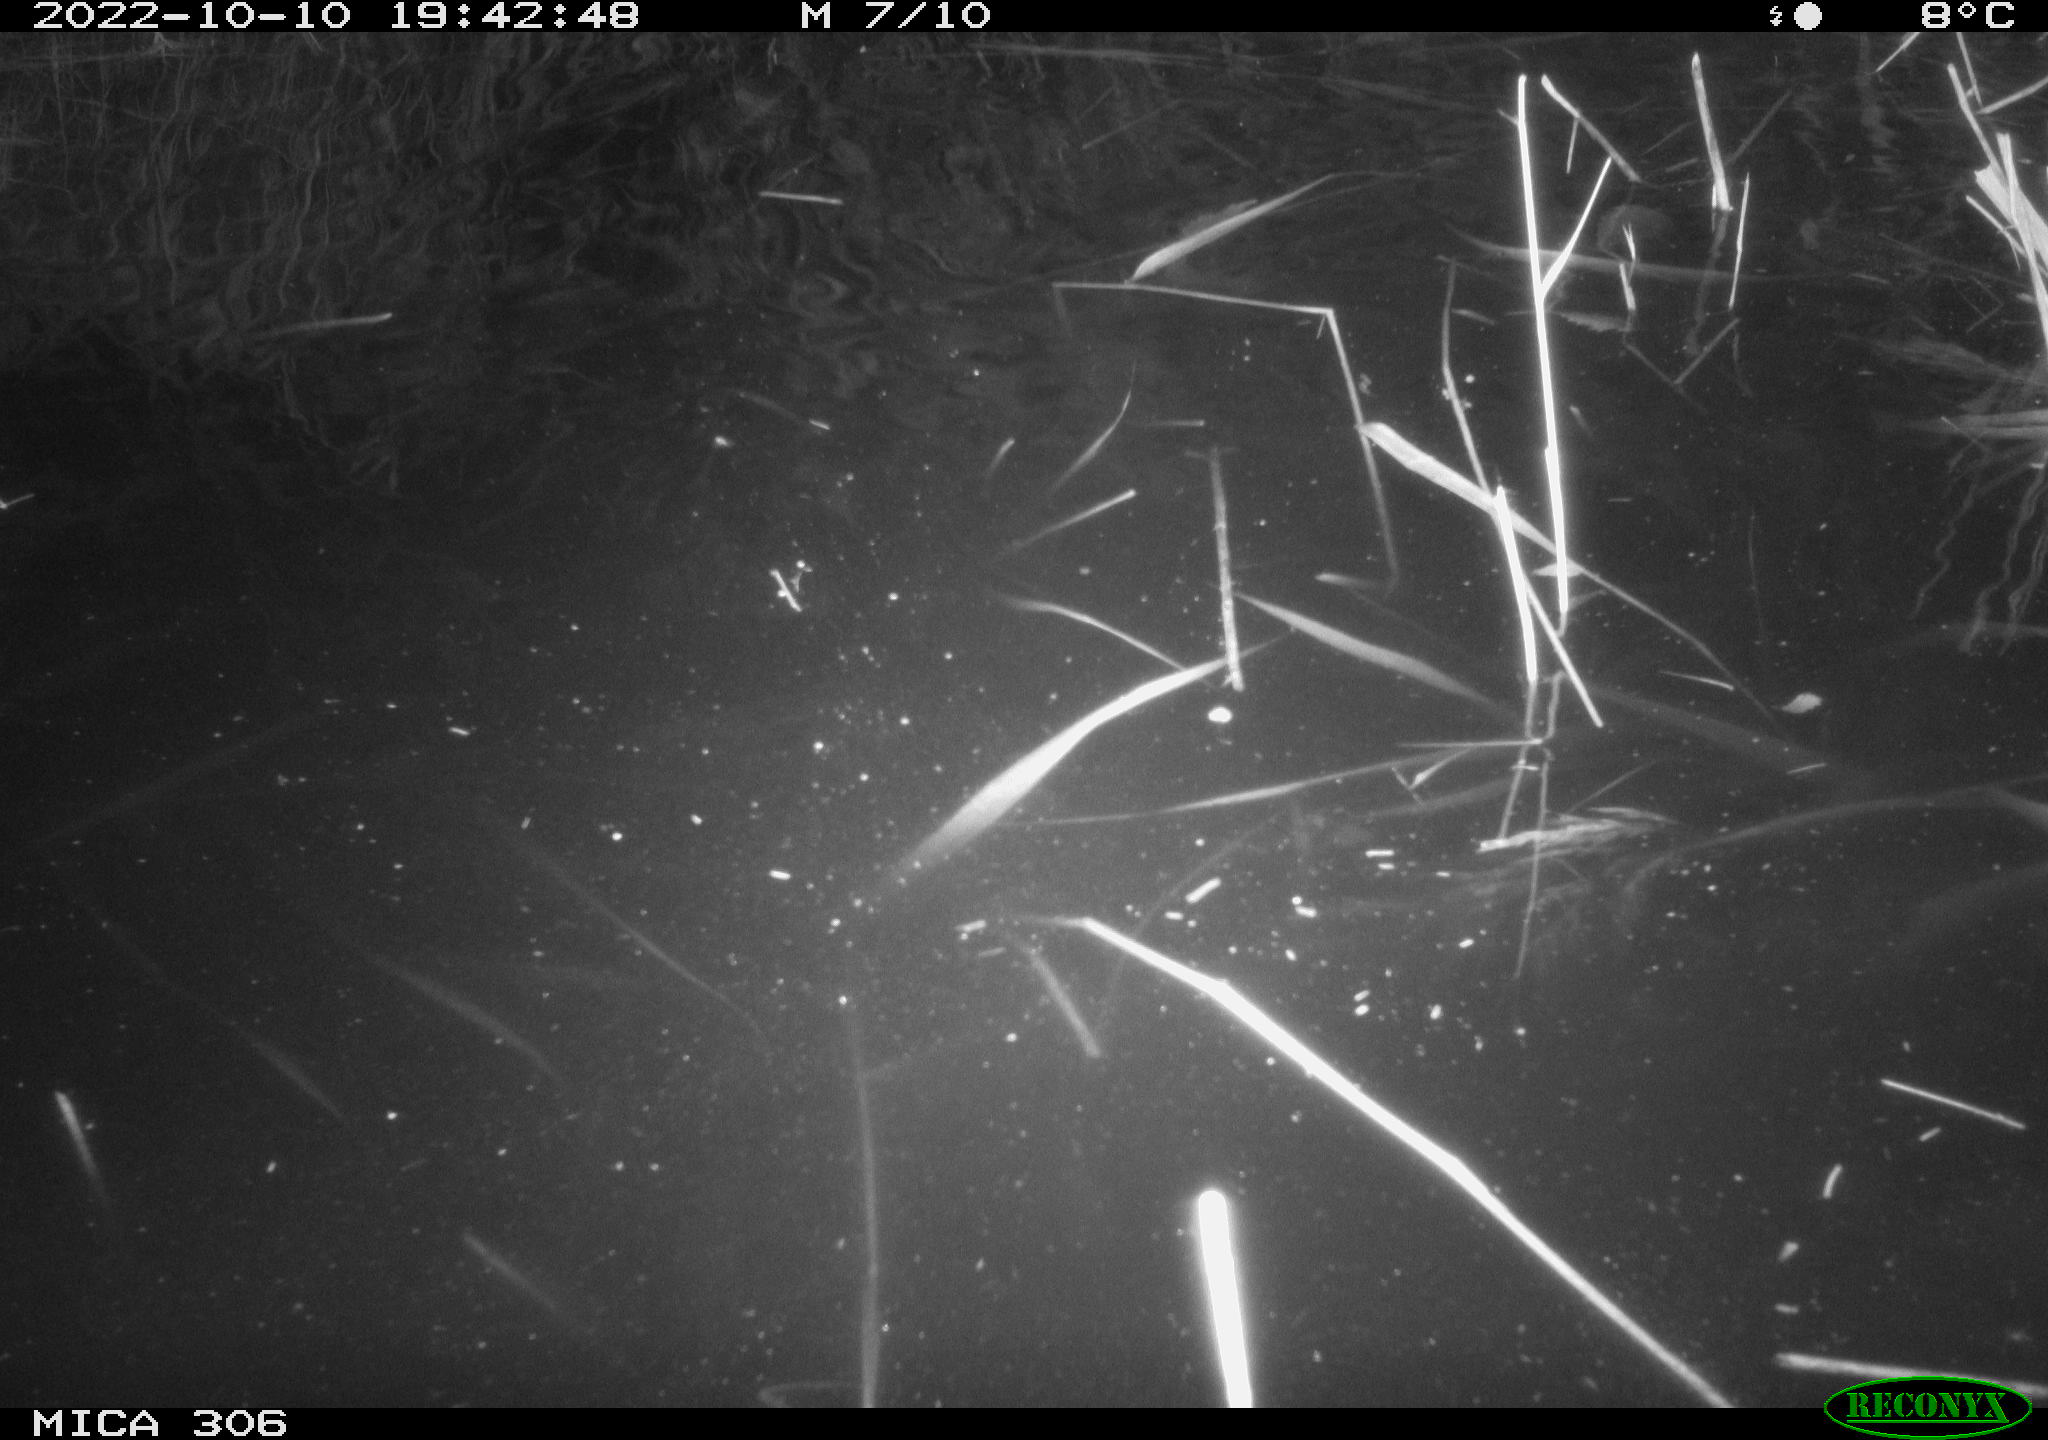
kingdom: Animalia
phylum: Chordata
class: Mammalia
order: Rodentia
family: Muridae
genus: Rattus
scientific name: Rattus norvegicus
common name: Brown rat
